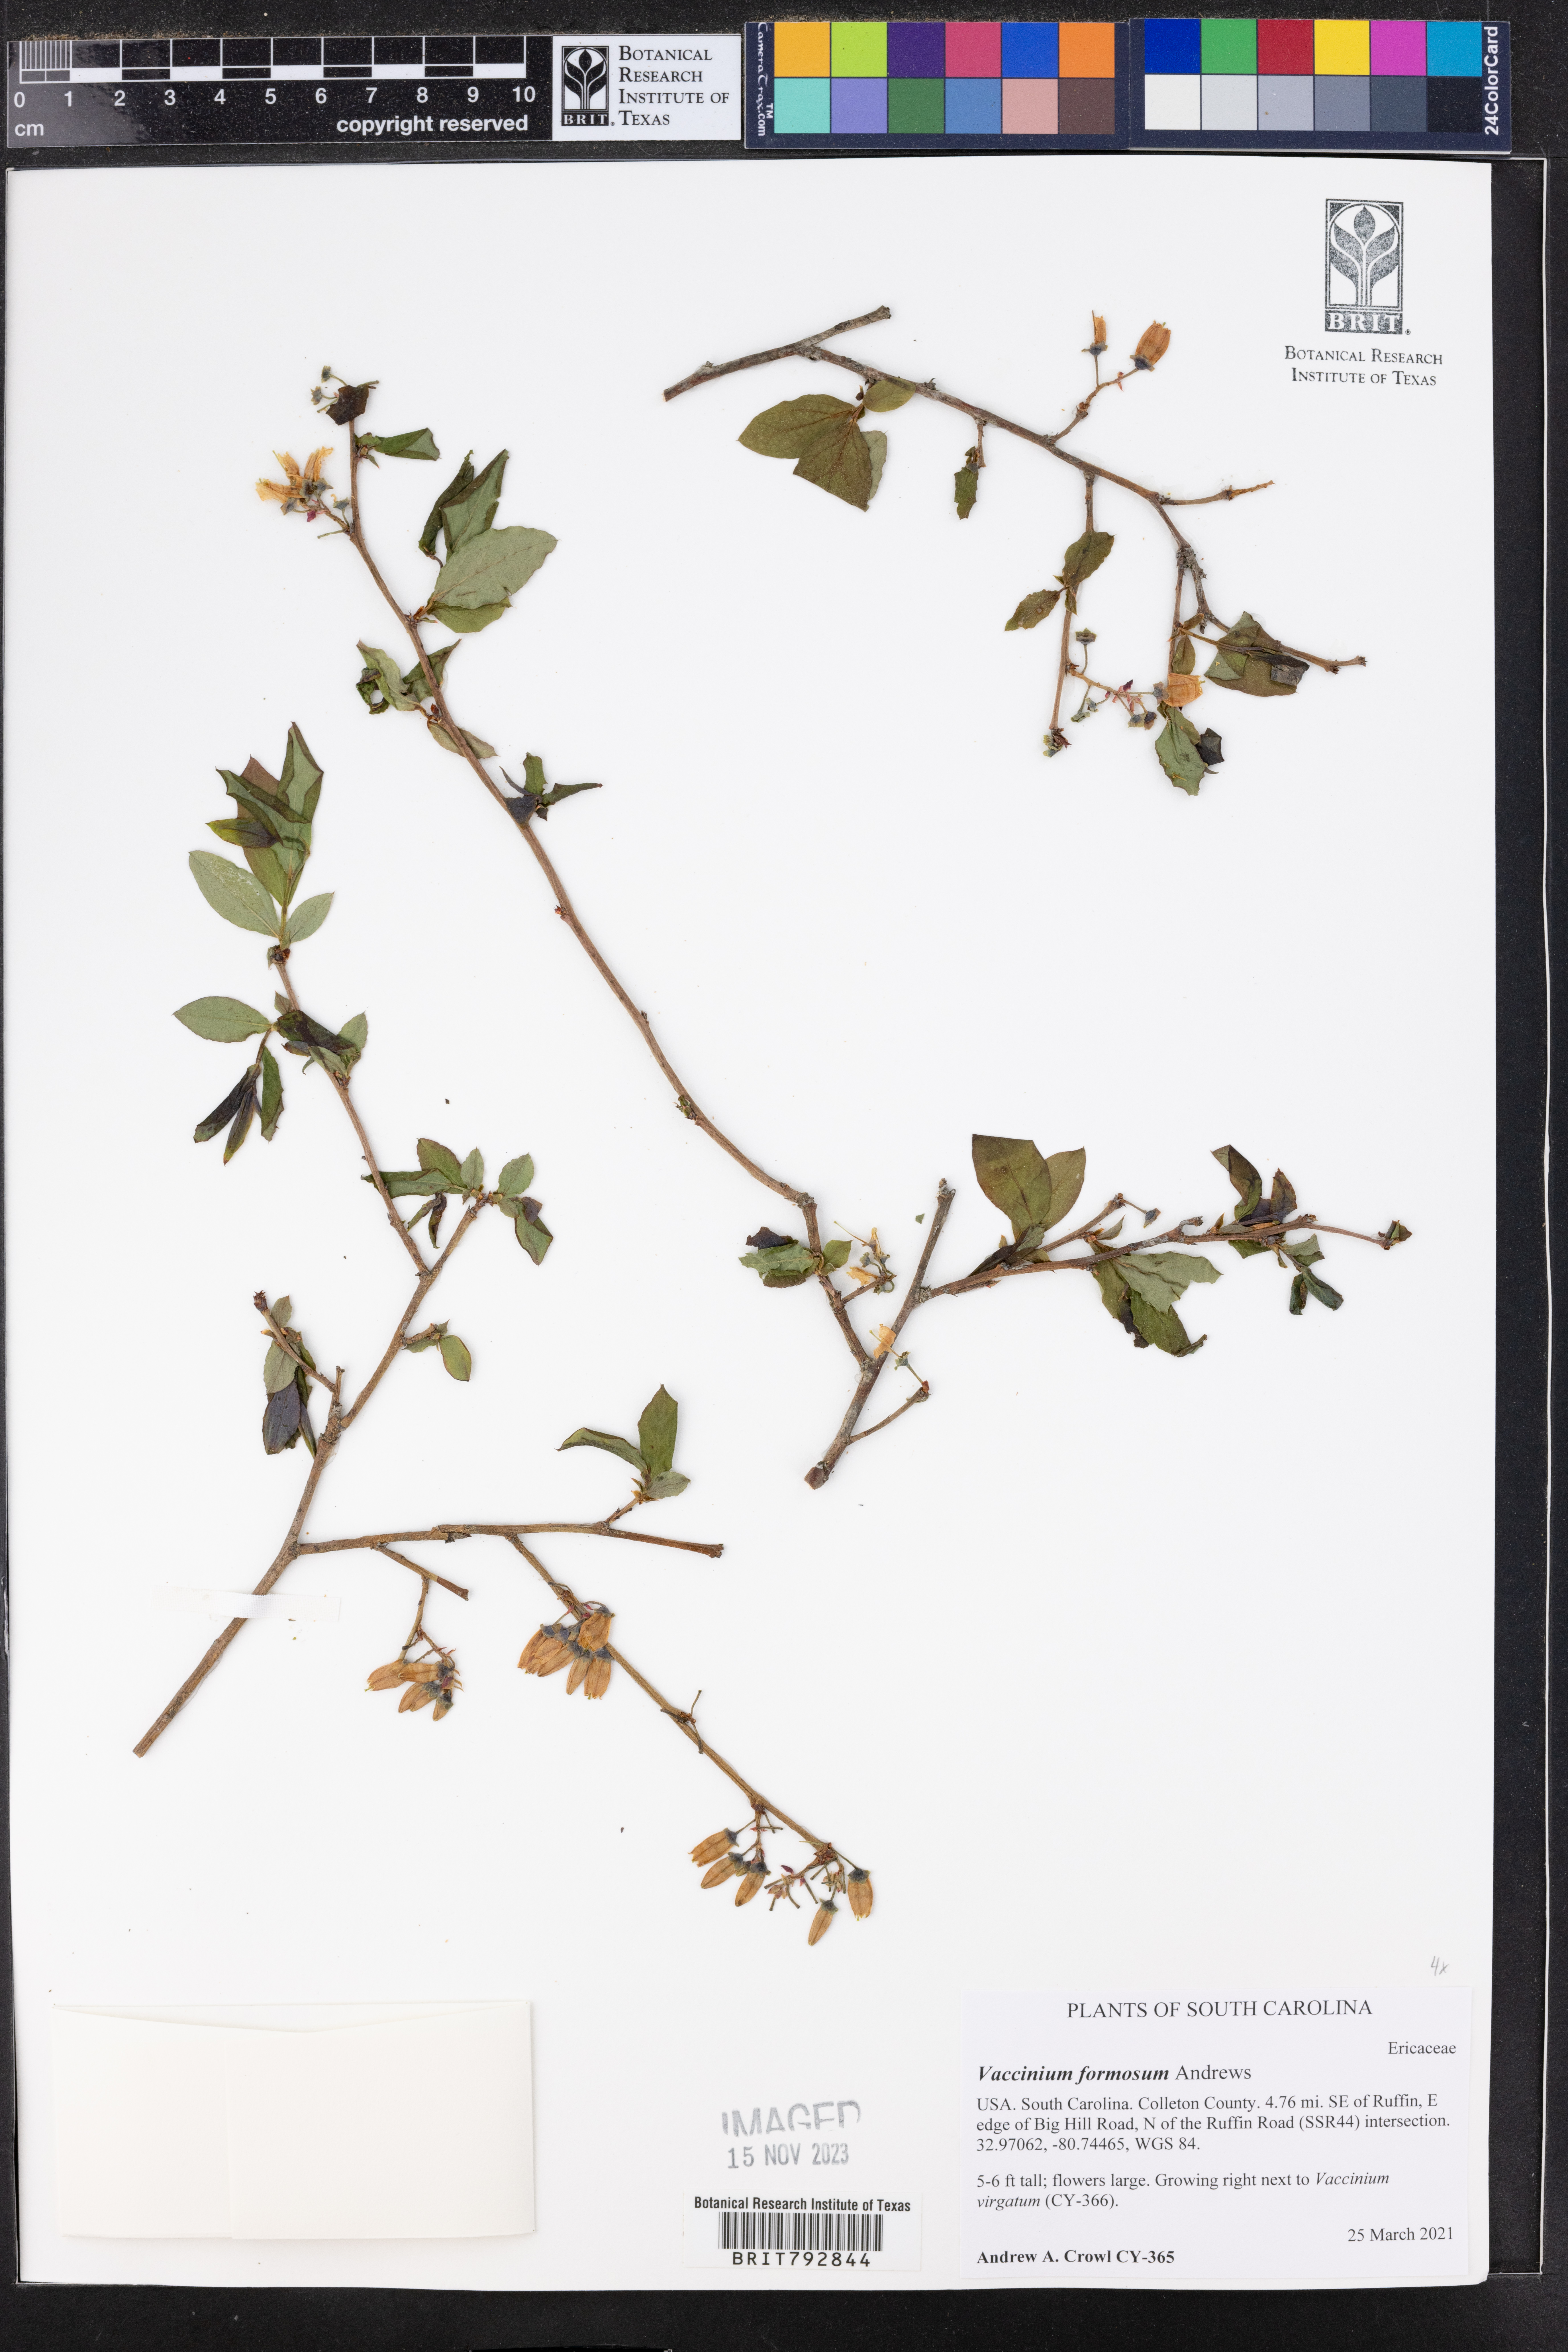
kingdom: Plantae
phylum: Tracheophyta
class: Magnoliopsida
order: Ericales
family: Ericaceae
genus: Vaccinium
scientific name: Vaccinium corymbosum
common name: Blueberry
